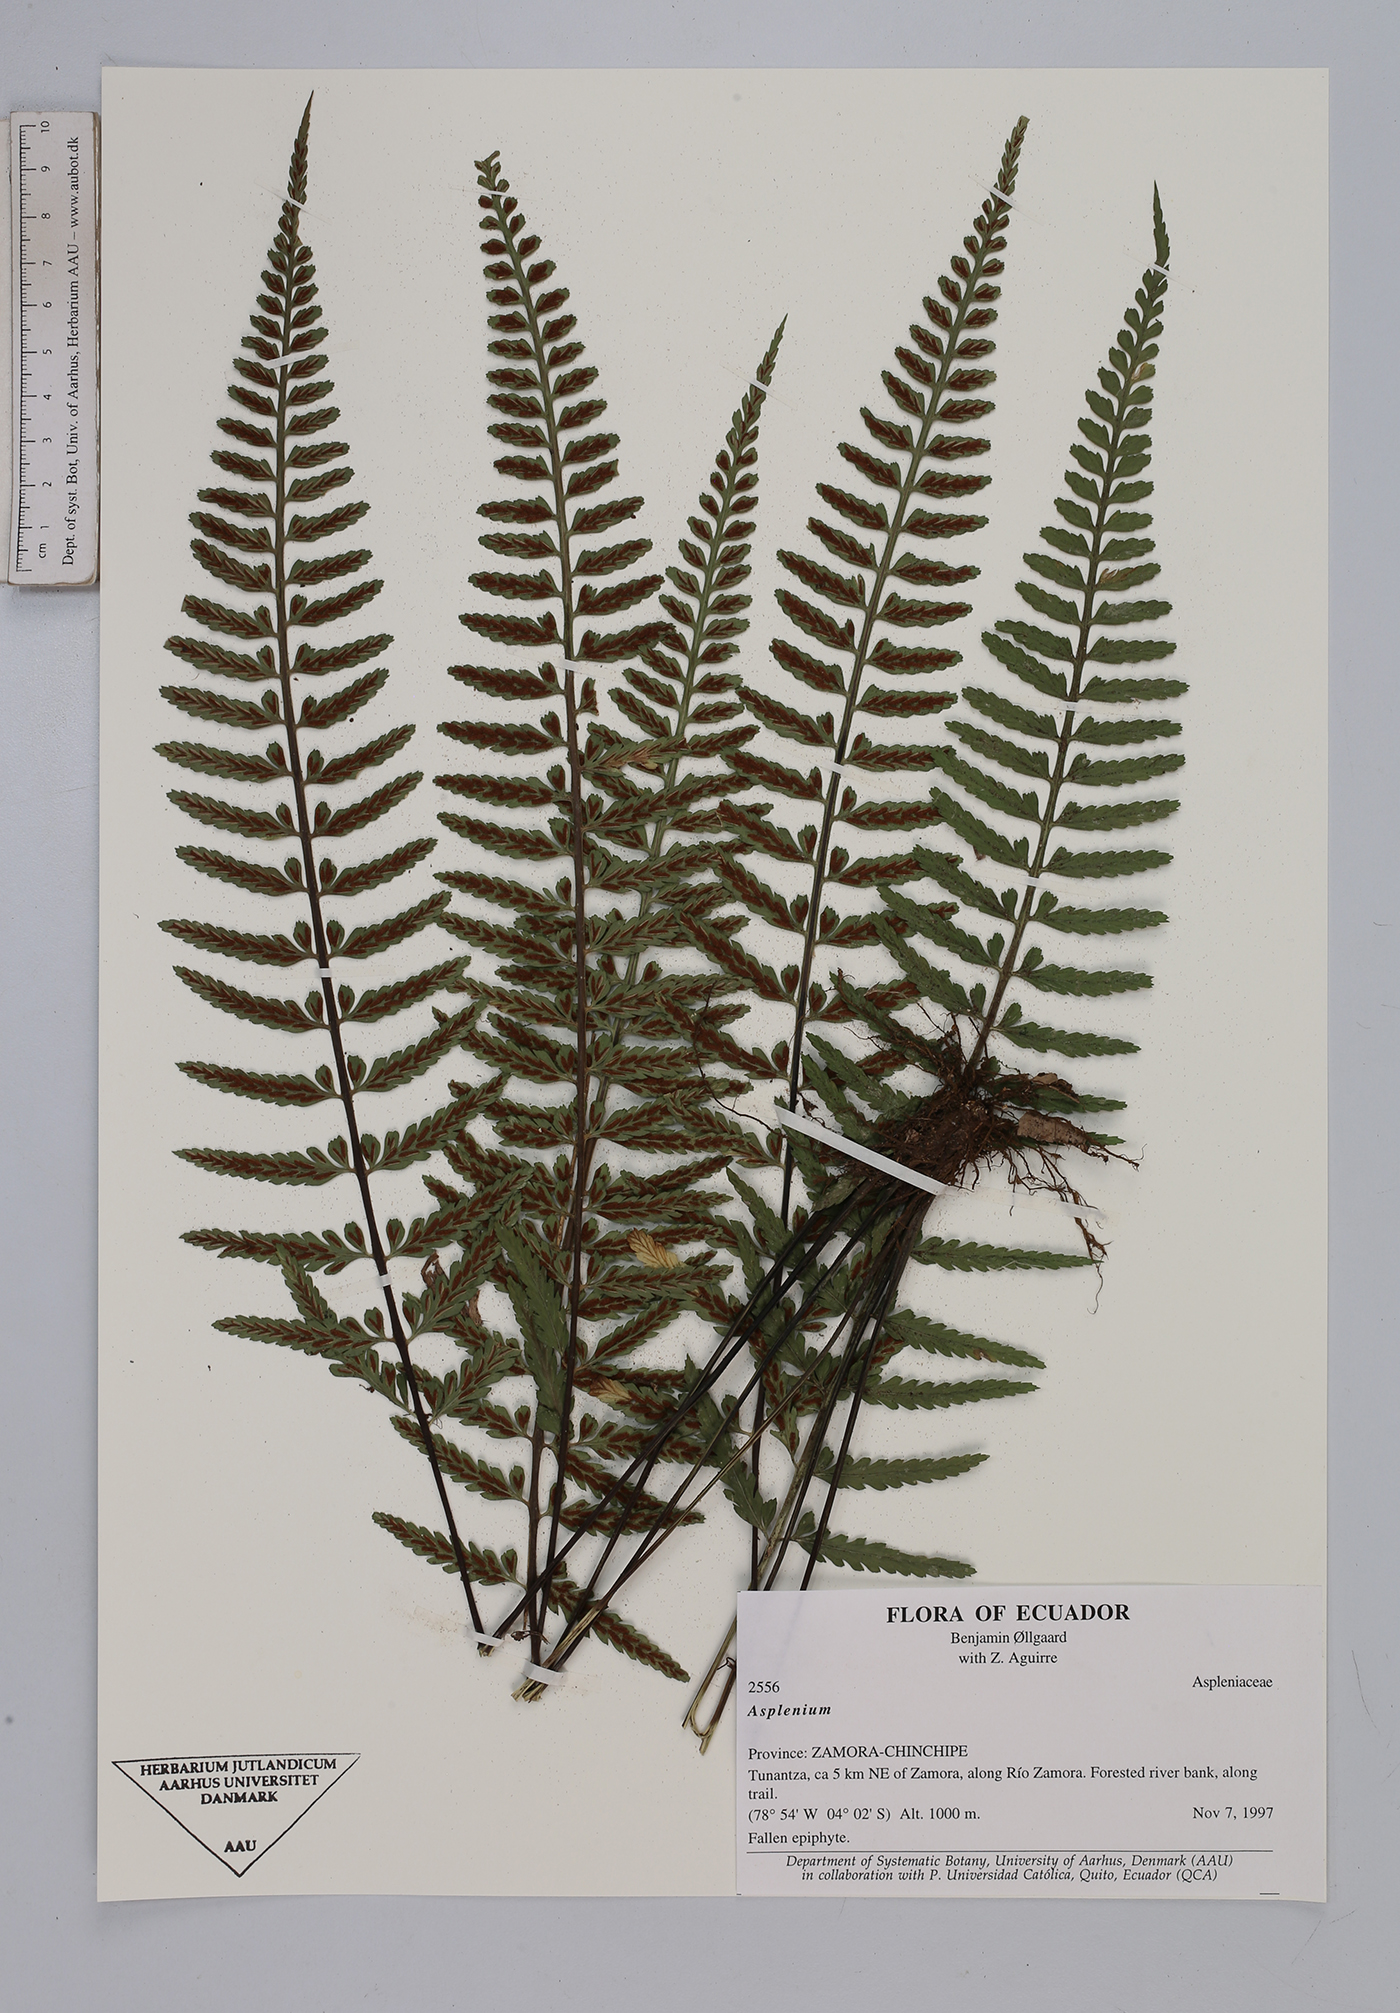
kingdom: Plantae
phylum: Tracheophyta
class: Polypodiopsida
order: Polypodiales
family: Aspleniaceae
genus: Asplenium
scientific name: Asplenium
